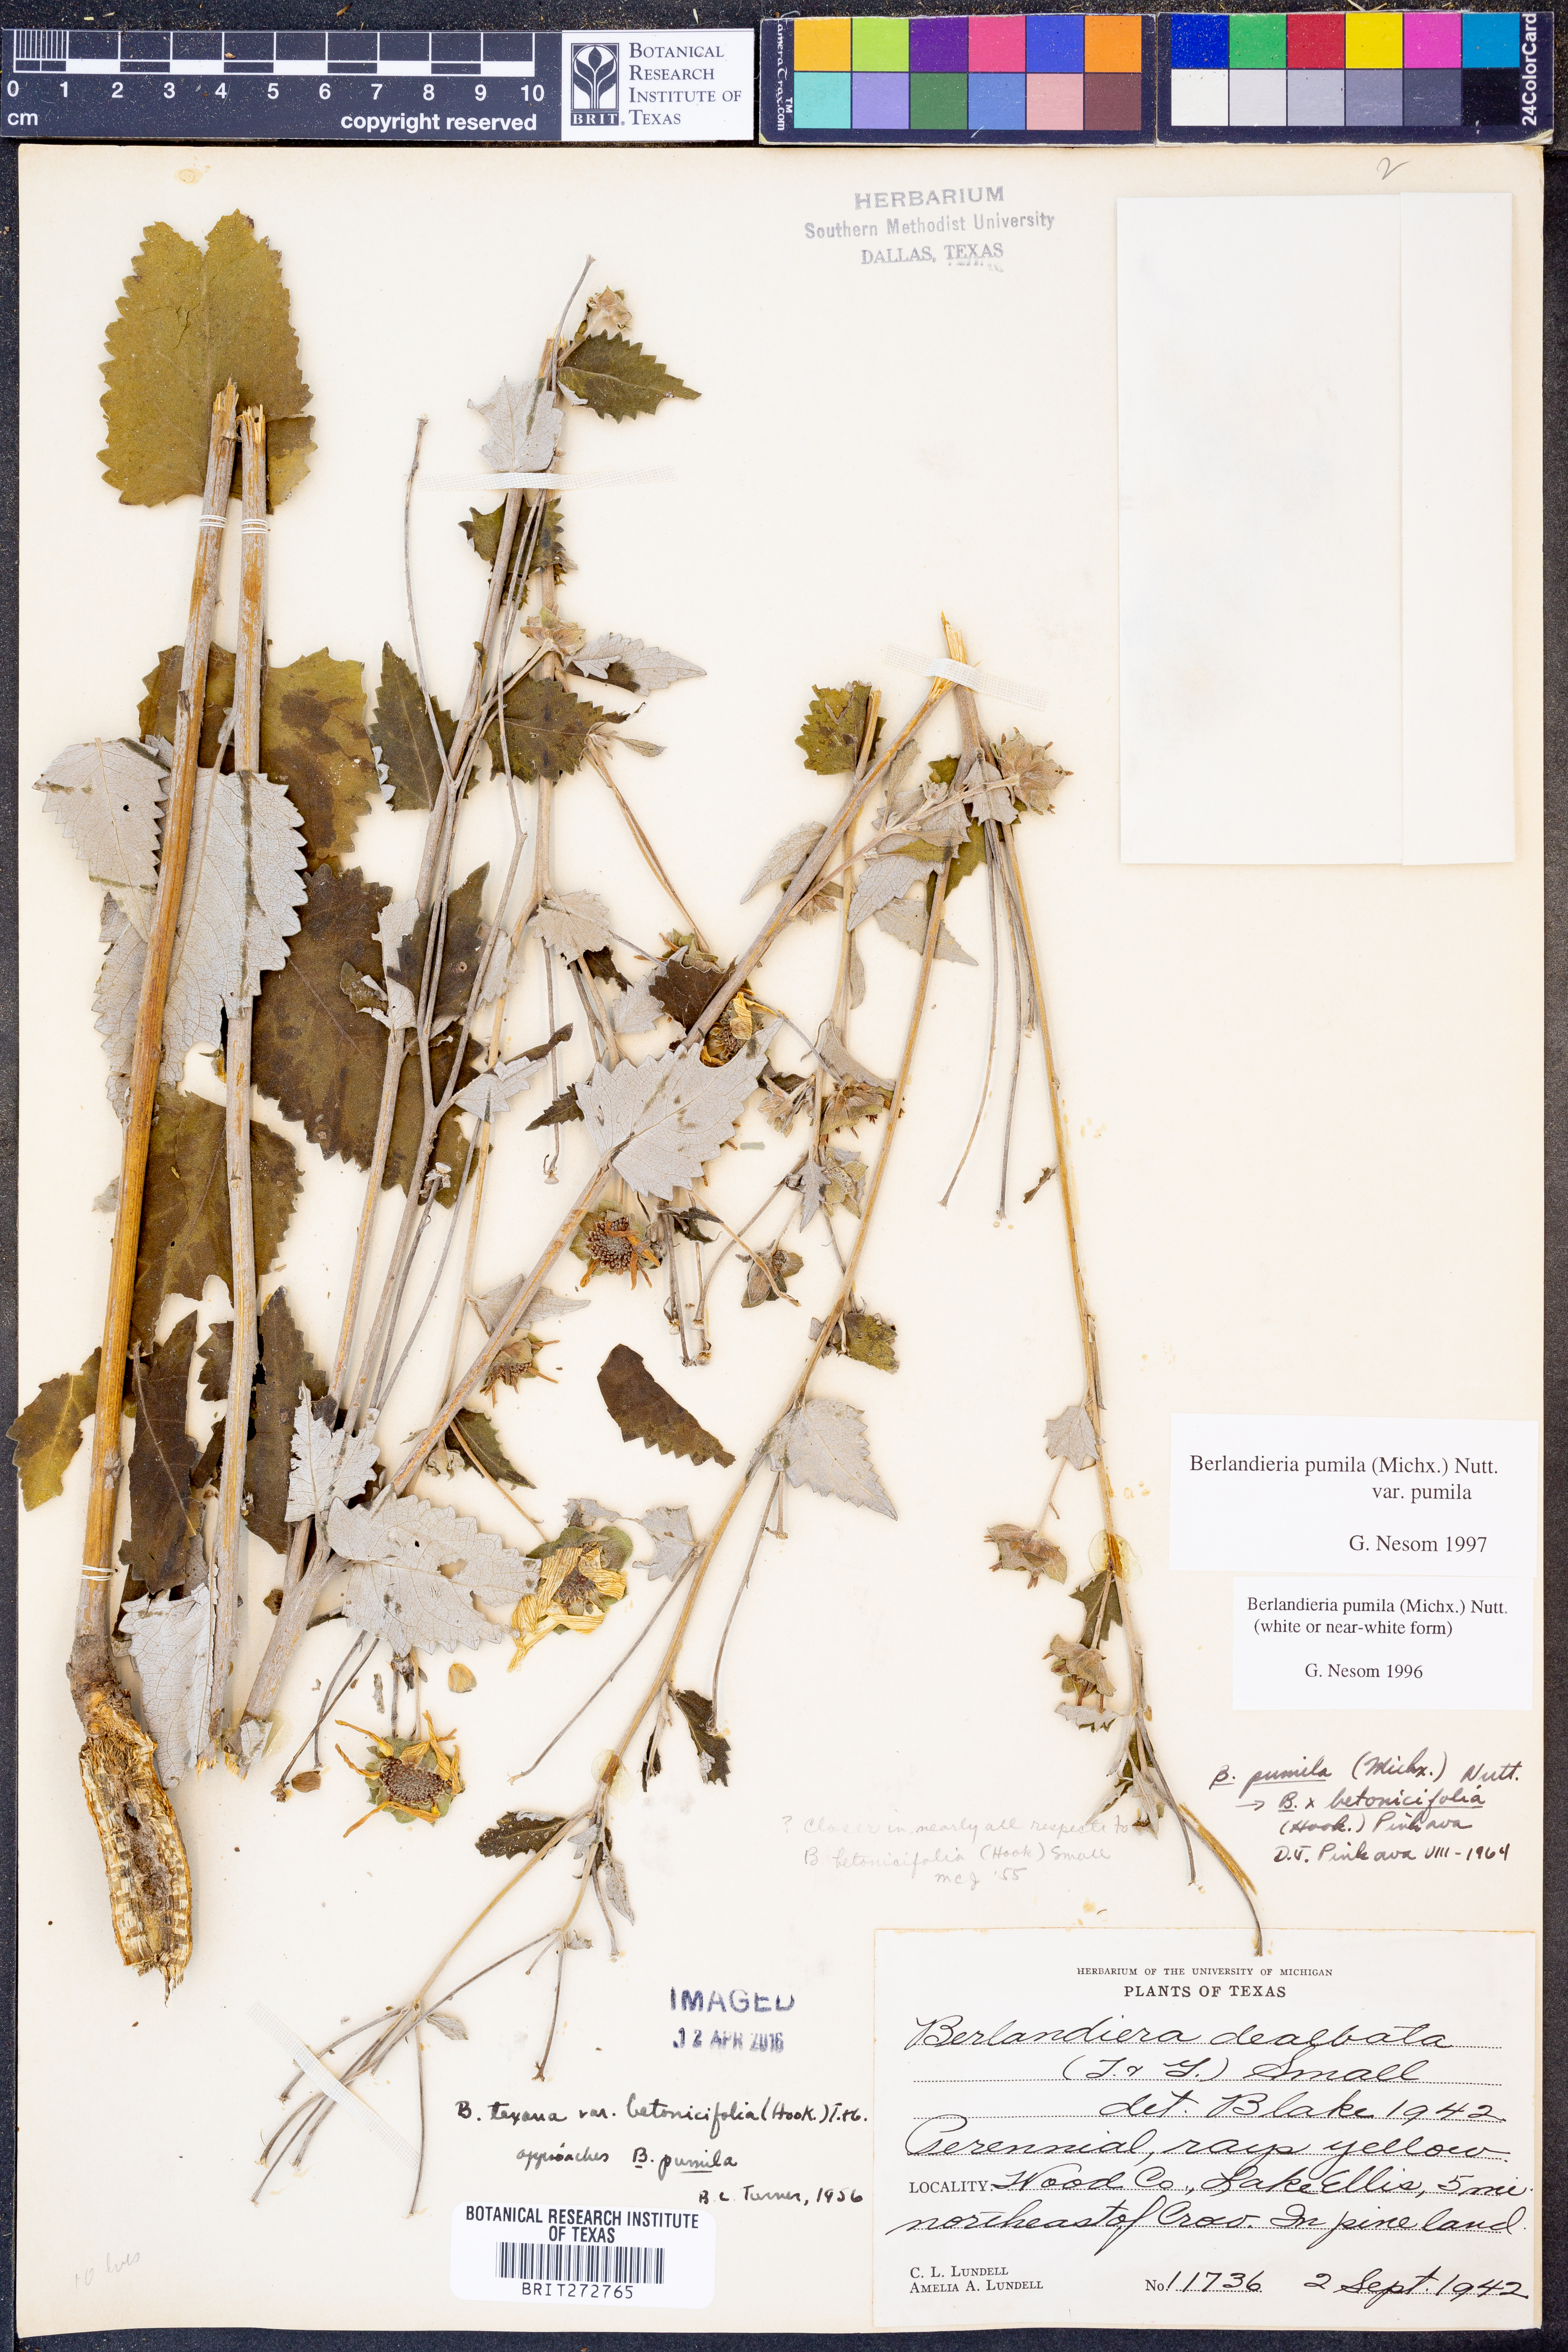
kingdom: Plantae
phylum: Tracheophyta
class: Magnoliopsida
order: Asterales
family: Asteraceae
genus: Berlandiera
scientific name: Berlandiera pumila
